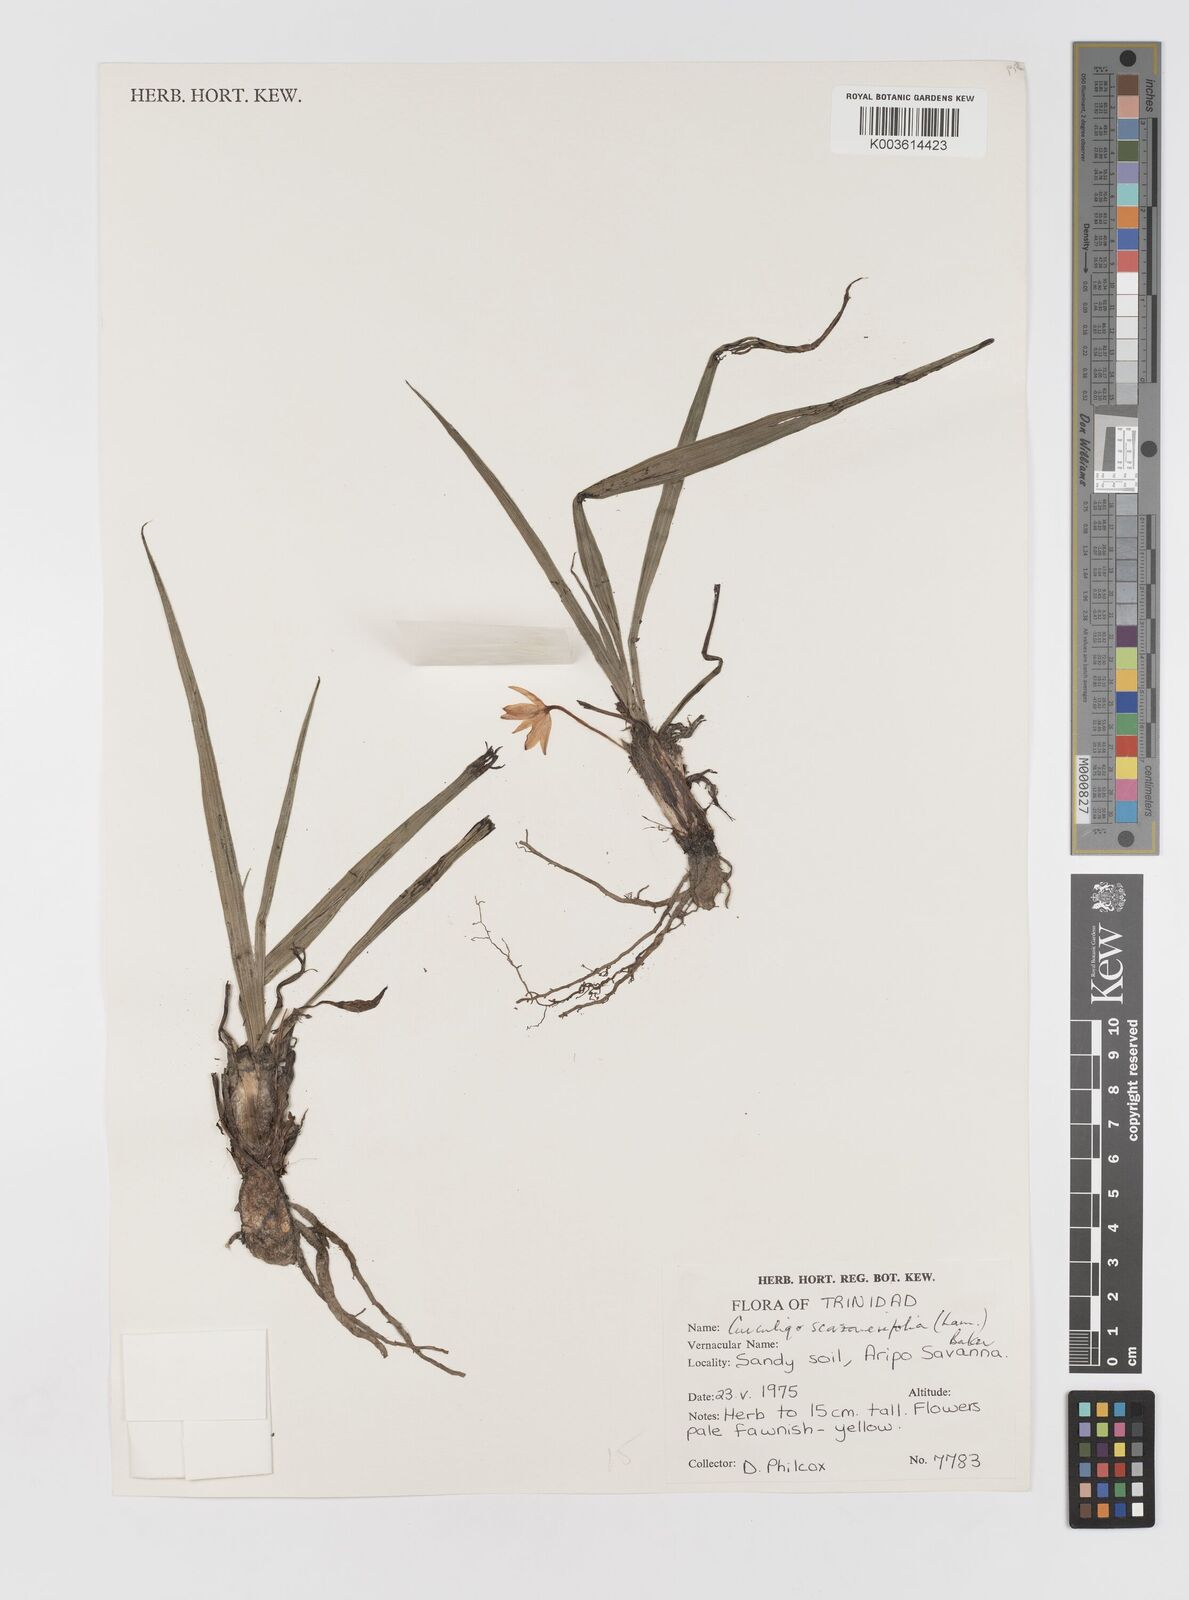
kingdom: Plantae
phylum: Tracheophyta
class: Liliopsida
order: Asparagales
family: Hypoxidaceae
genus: Curculigo
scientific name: Curculigo scorzonerifolia
